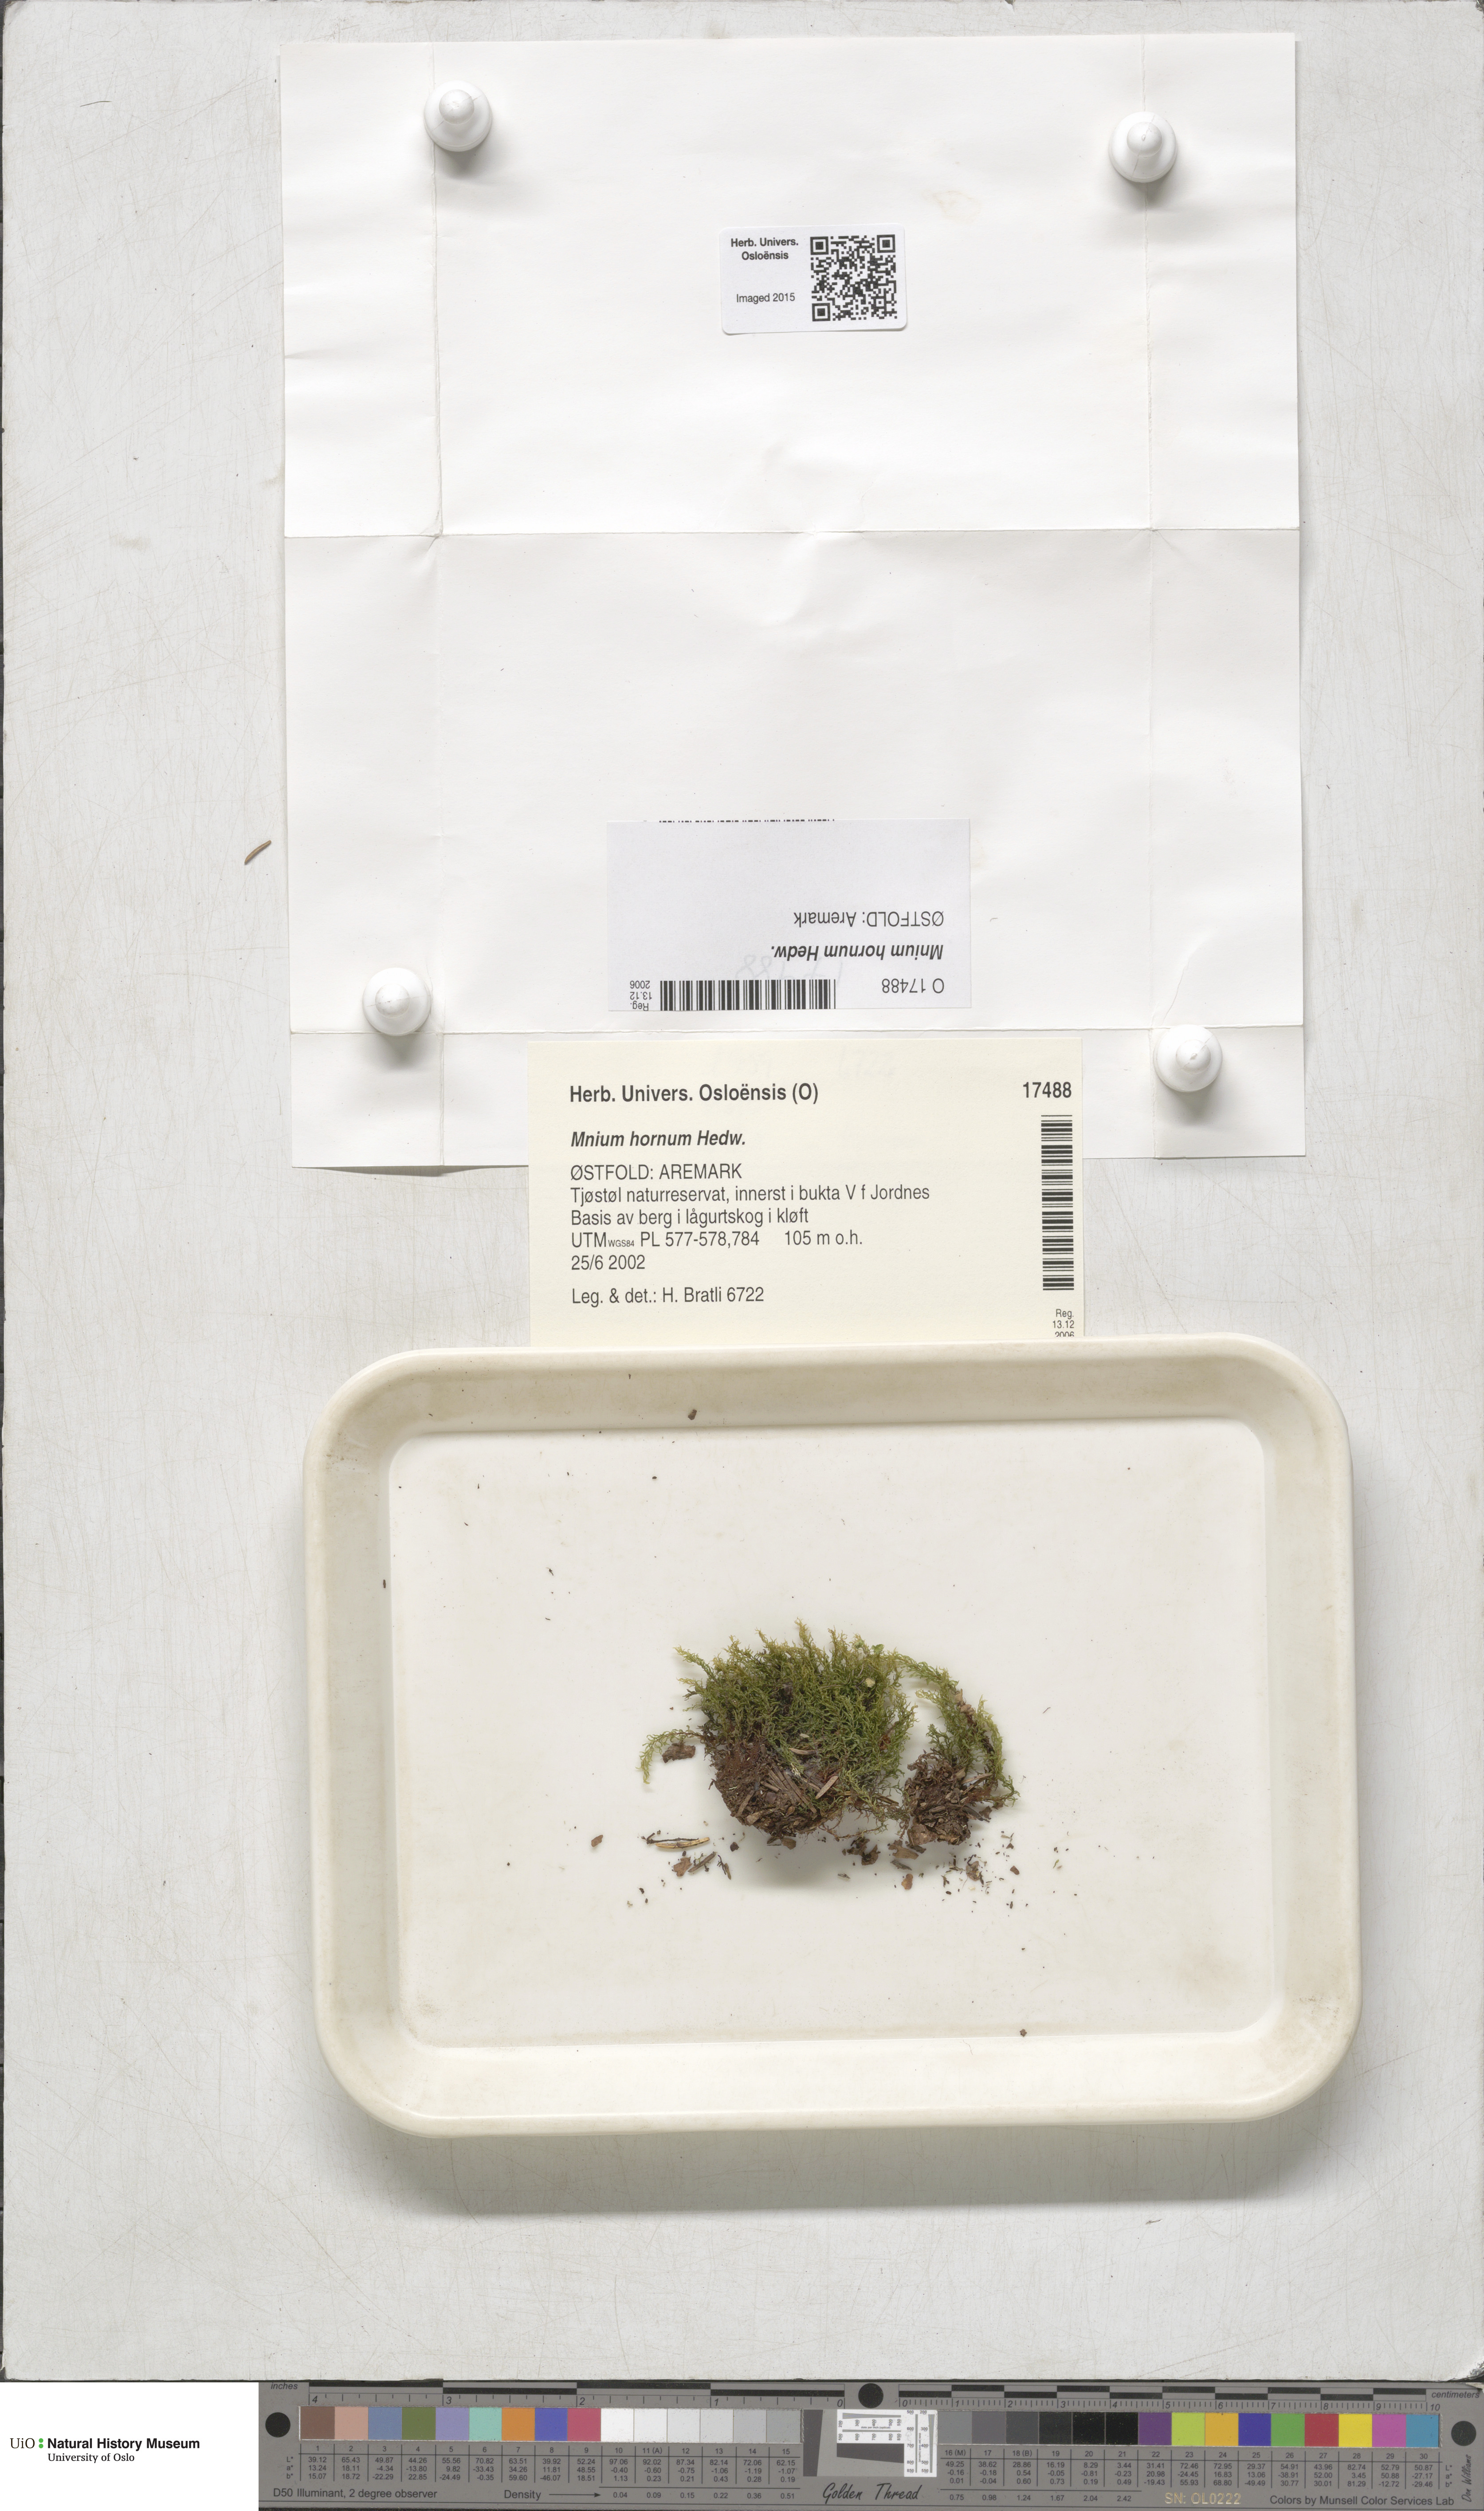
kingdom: Plantae
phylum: Bryophyta
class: Bryopsida
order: Bryales
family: Mniaceae
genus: Mnium
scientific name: Mnium hornum
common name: Swan's-neck leafy moss
